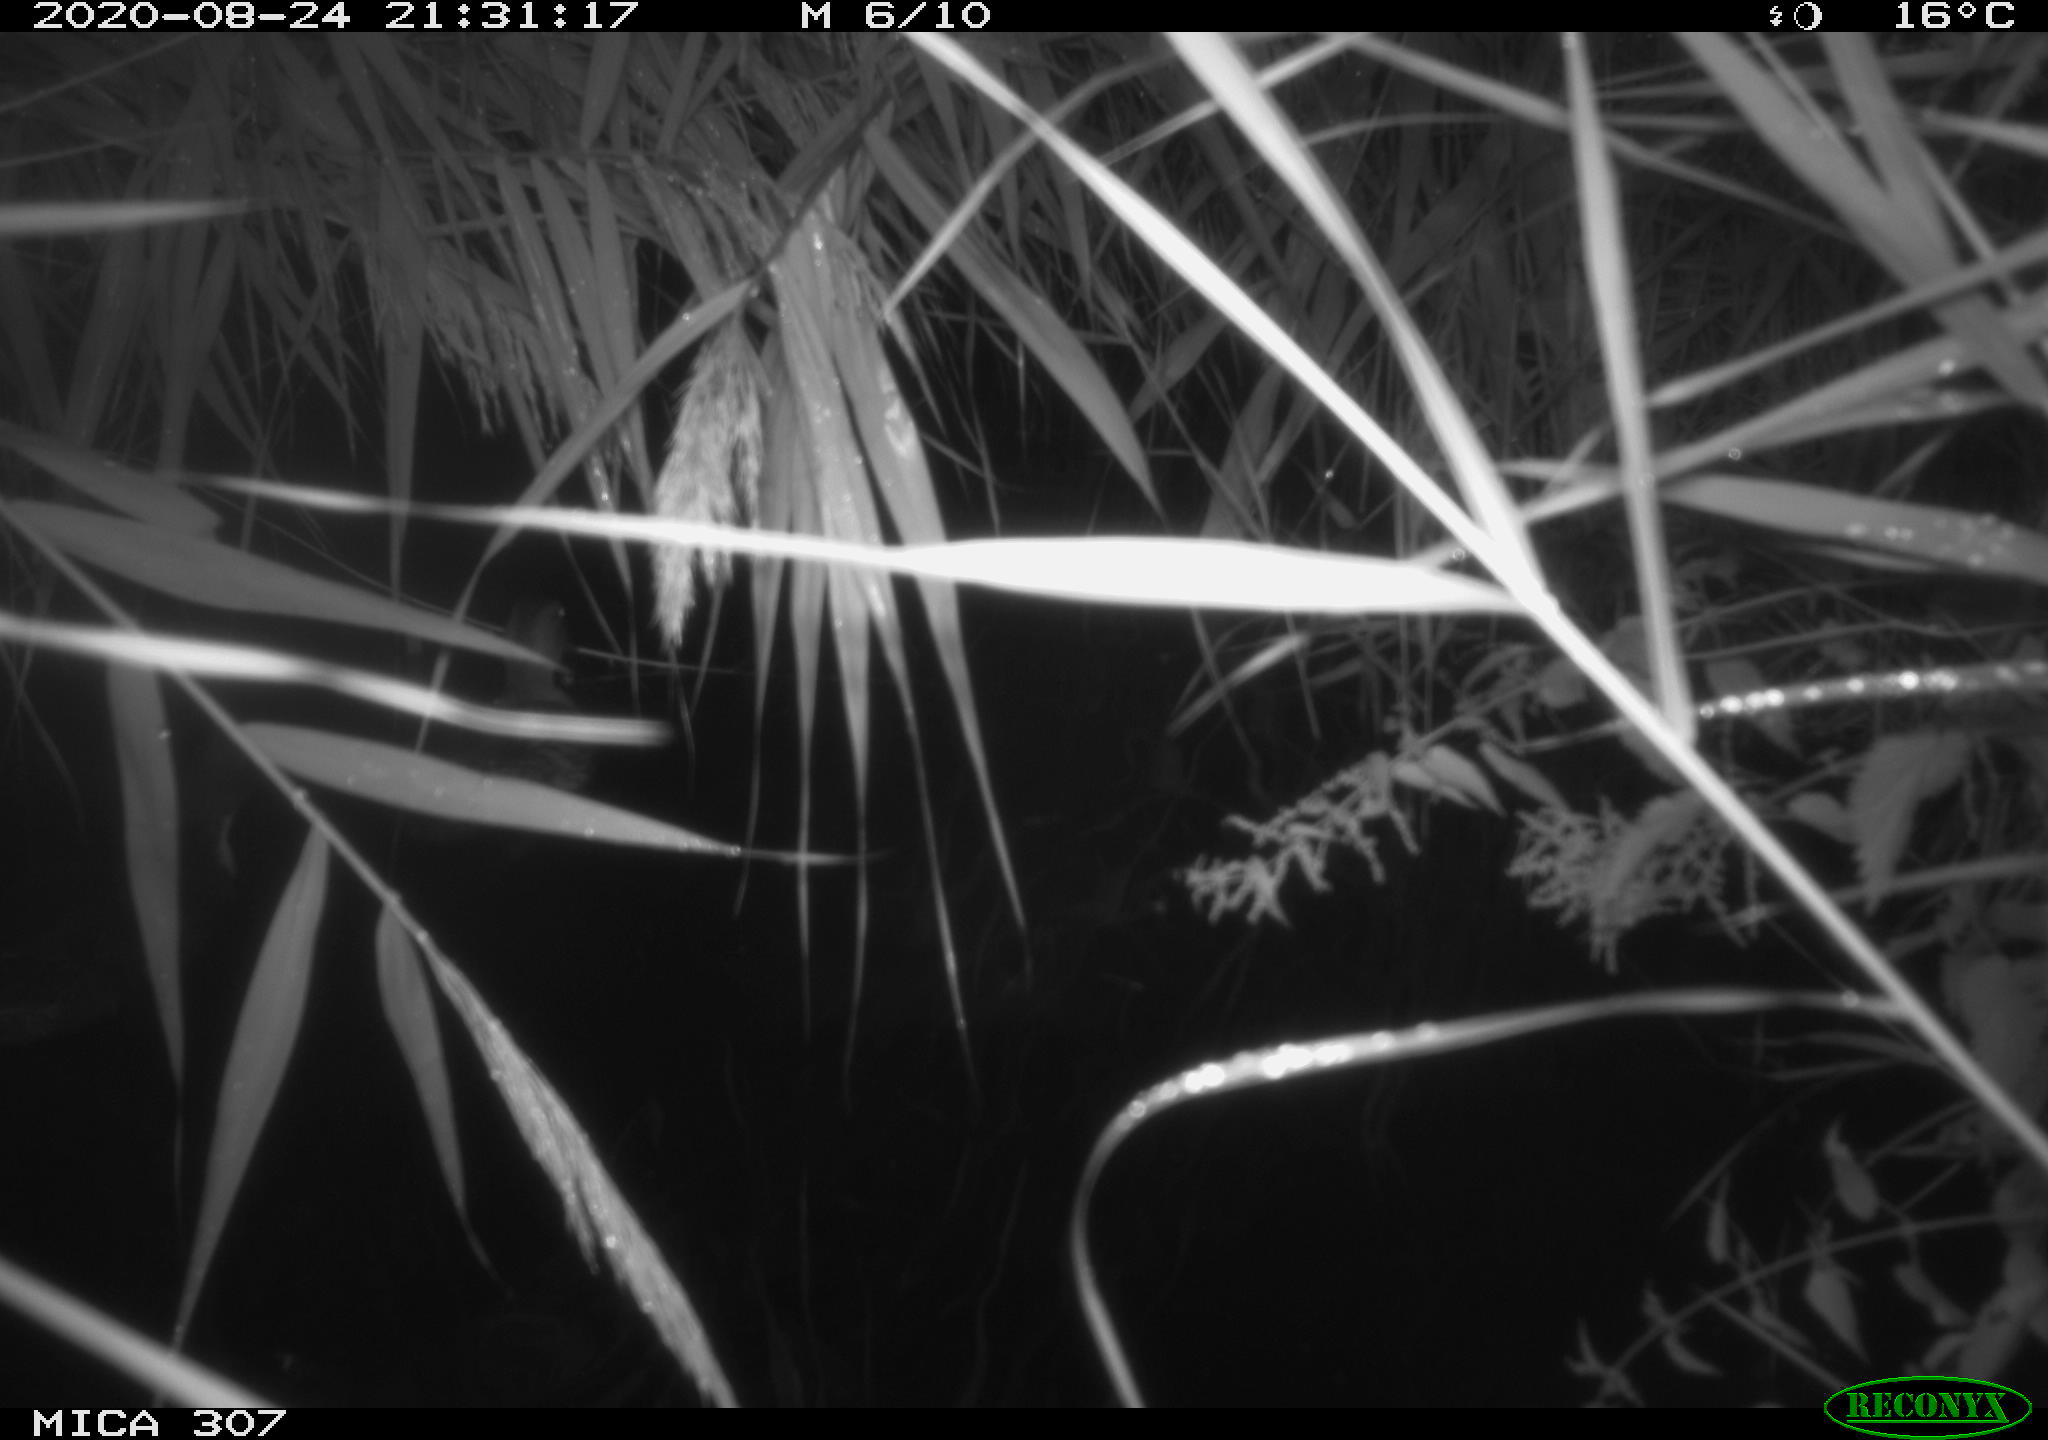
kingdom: Animalia
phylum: Chordata
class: Aves
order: Anseriformes
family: Anatidae
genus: Anas
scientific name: Anas platyrhynchos
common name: Mallard
